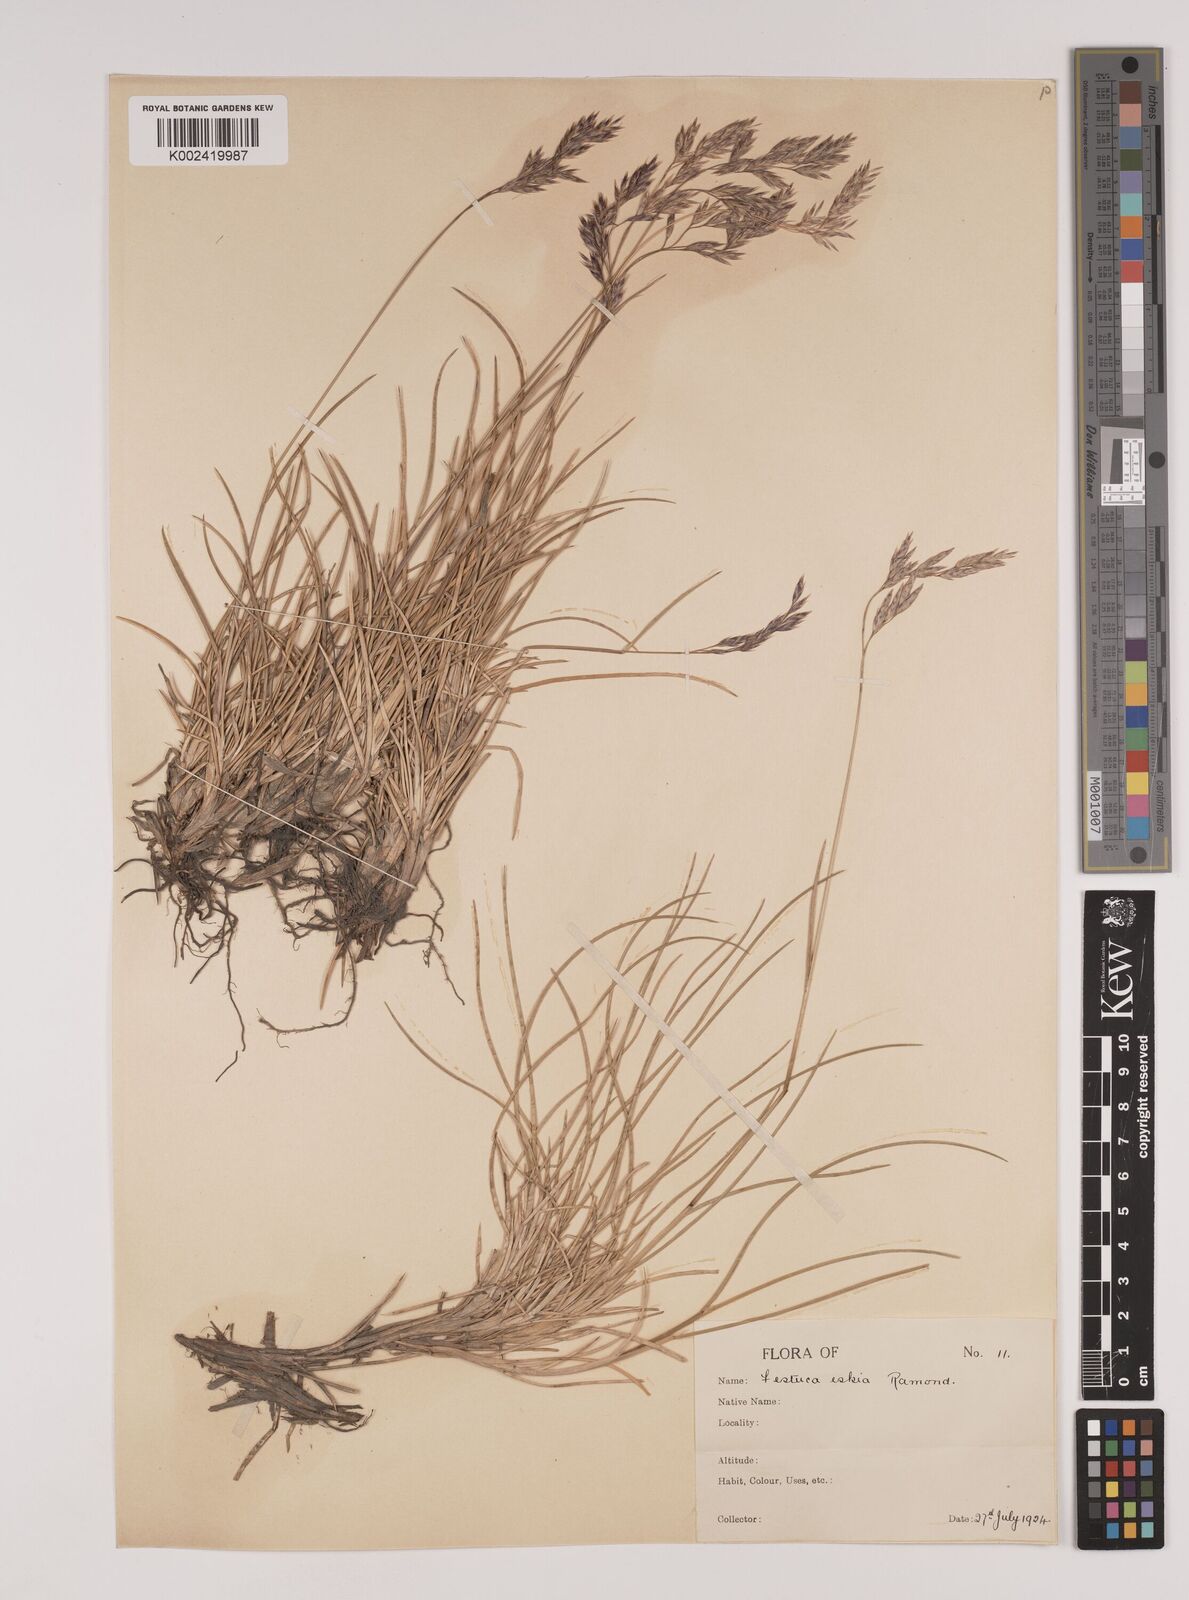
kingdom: Plantae
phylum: Tracheophyta
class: Liliopsida
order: Poales
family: Poaceae
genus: Festuca
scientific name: Festuca eskia
